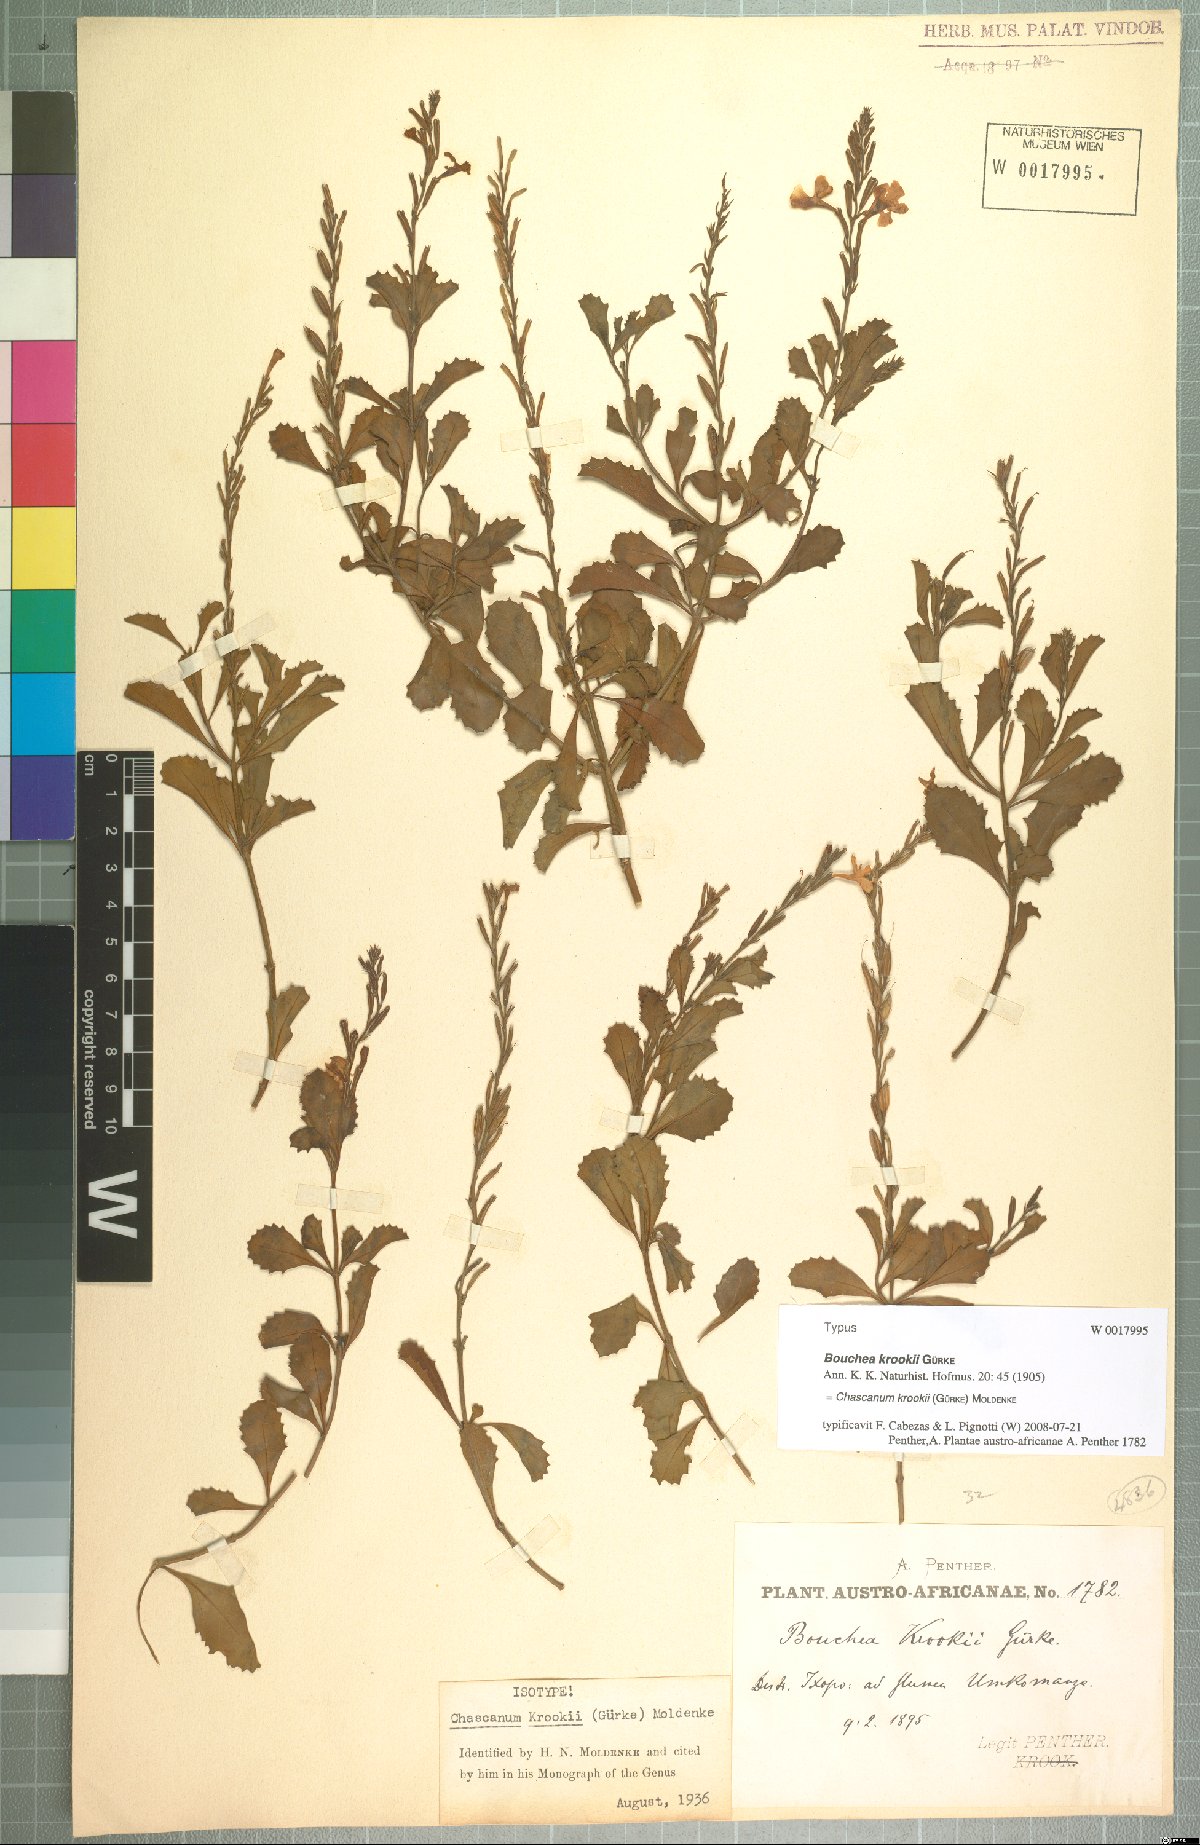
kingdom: Plantae
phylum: Tracheophyta
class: Magnoliopsida
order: Lamiales
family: Verbenaceae
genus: Chascanum
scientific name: Chascanum krookii
